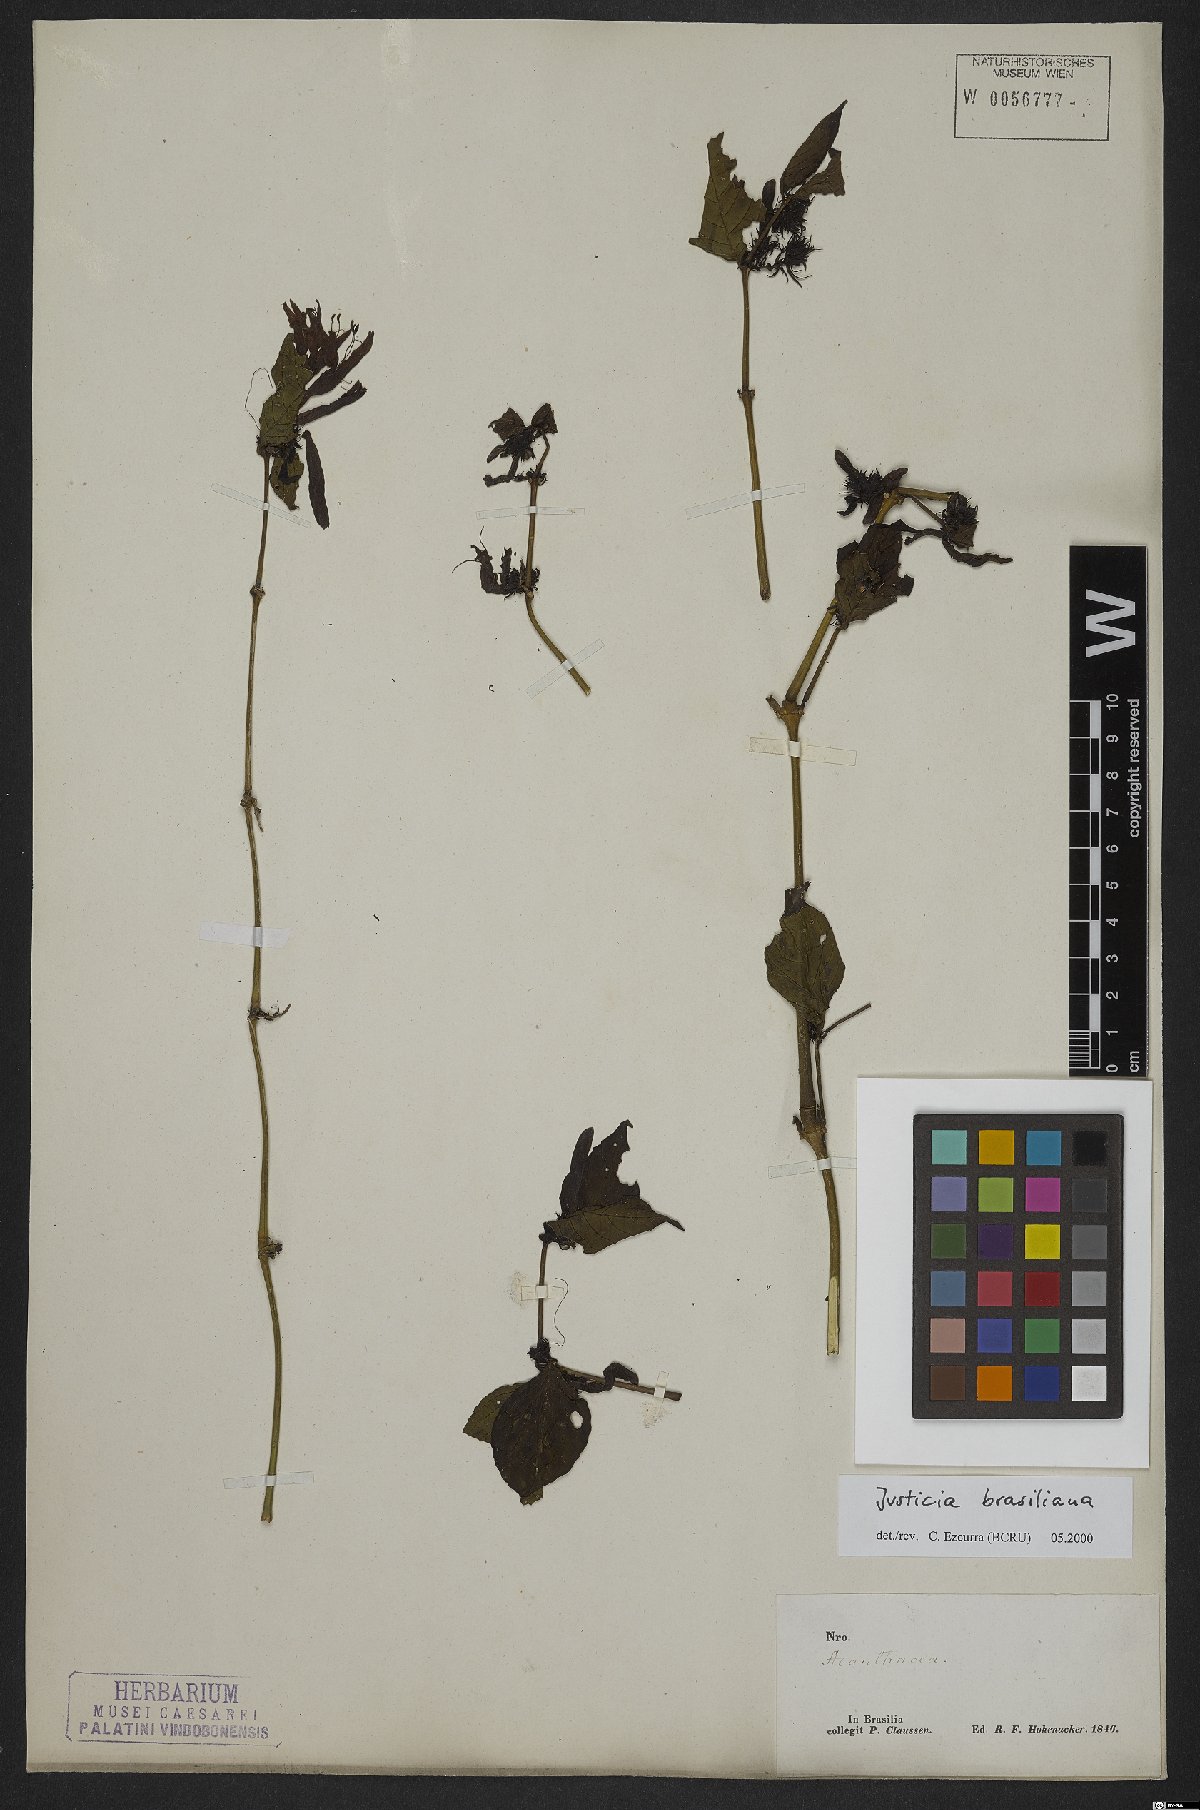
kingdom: Plantae
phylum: Tracheophyta
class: Magnoliopsida
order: Lamiales
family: Acanthaceae
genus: Justicia
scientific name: Justicia brasiliana
